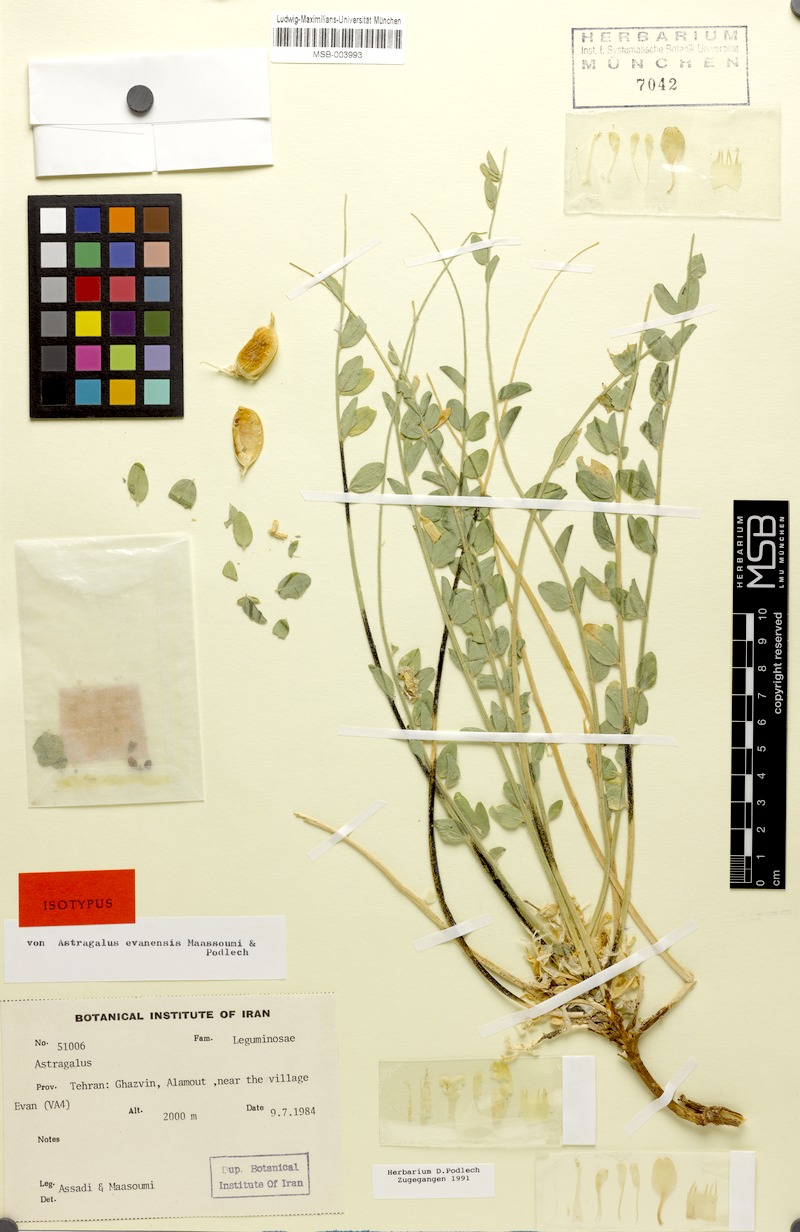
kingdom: Plantae
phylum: Tracheophyta
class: Magnoliopsida
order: Fabales
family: Fabaceae
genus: Astragalus
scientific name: Astragalus evanensis
